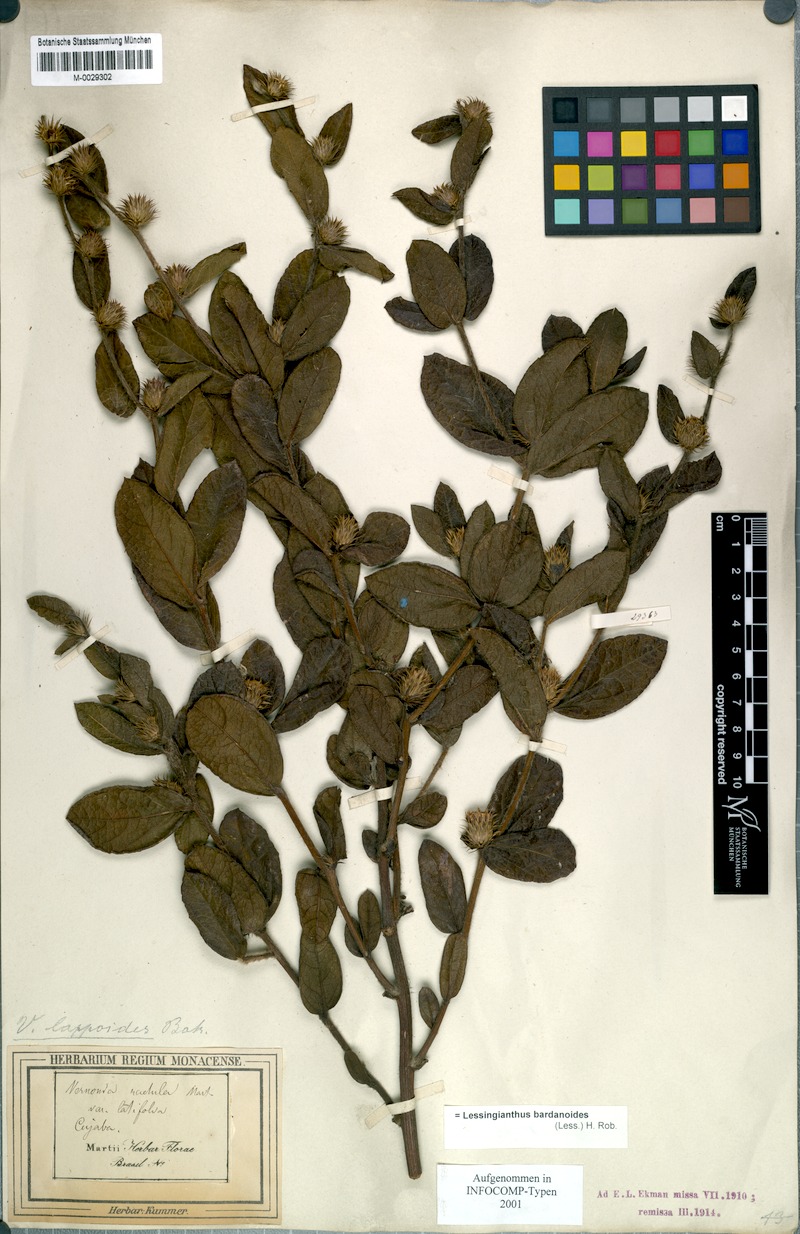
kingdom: Plantae
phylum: Tracheophyta
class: Magnoliopsida
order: Asterales
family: Asteraceae
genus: Lessingianthus
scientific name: Lessingianthus bardanioides
